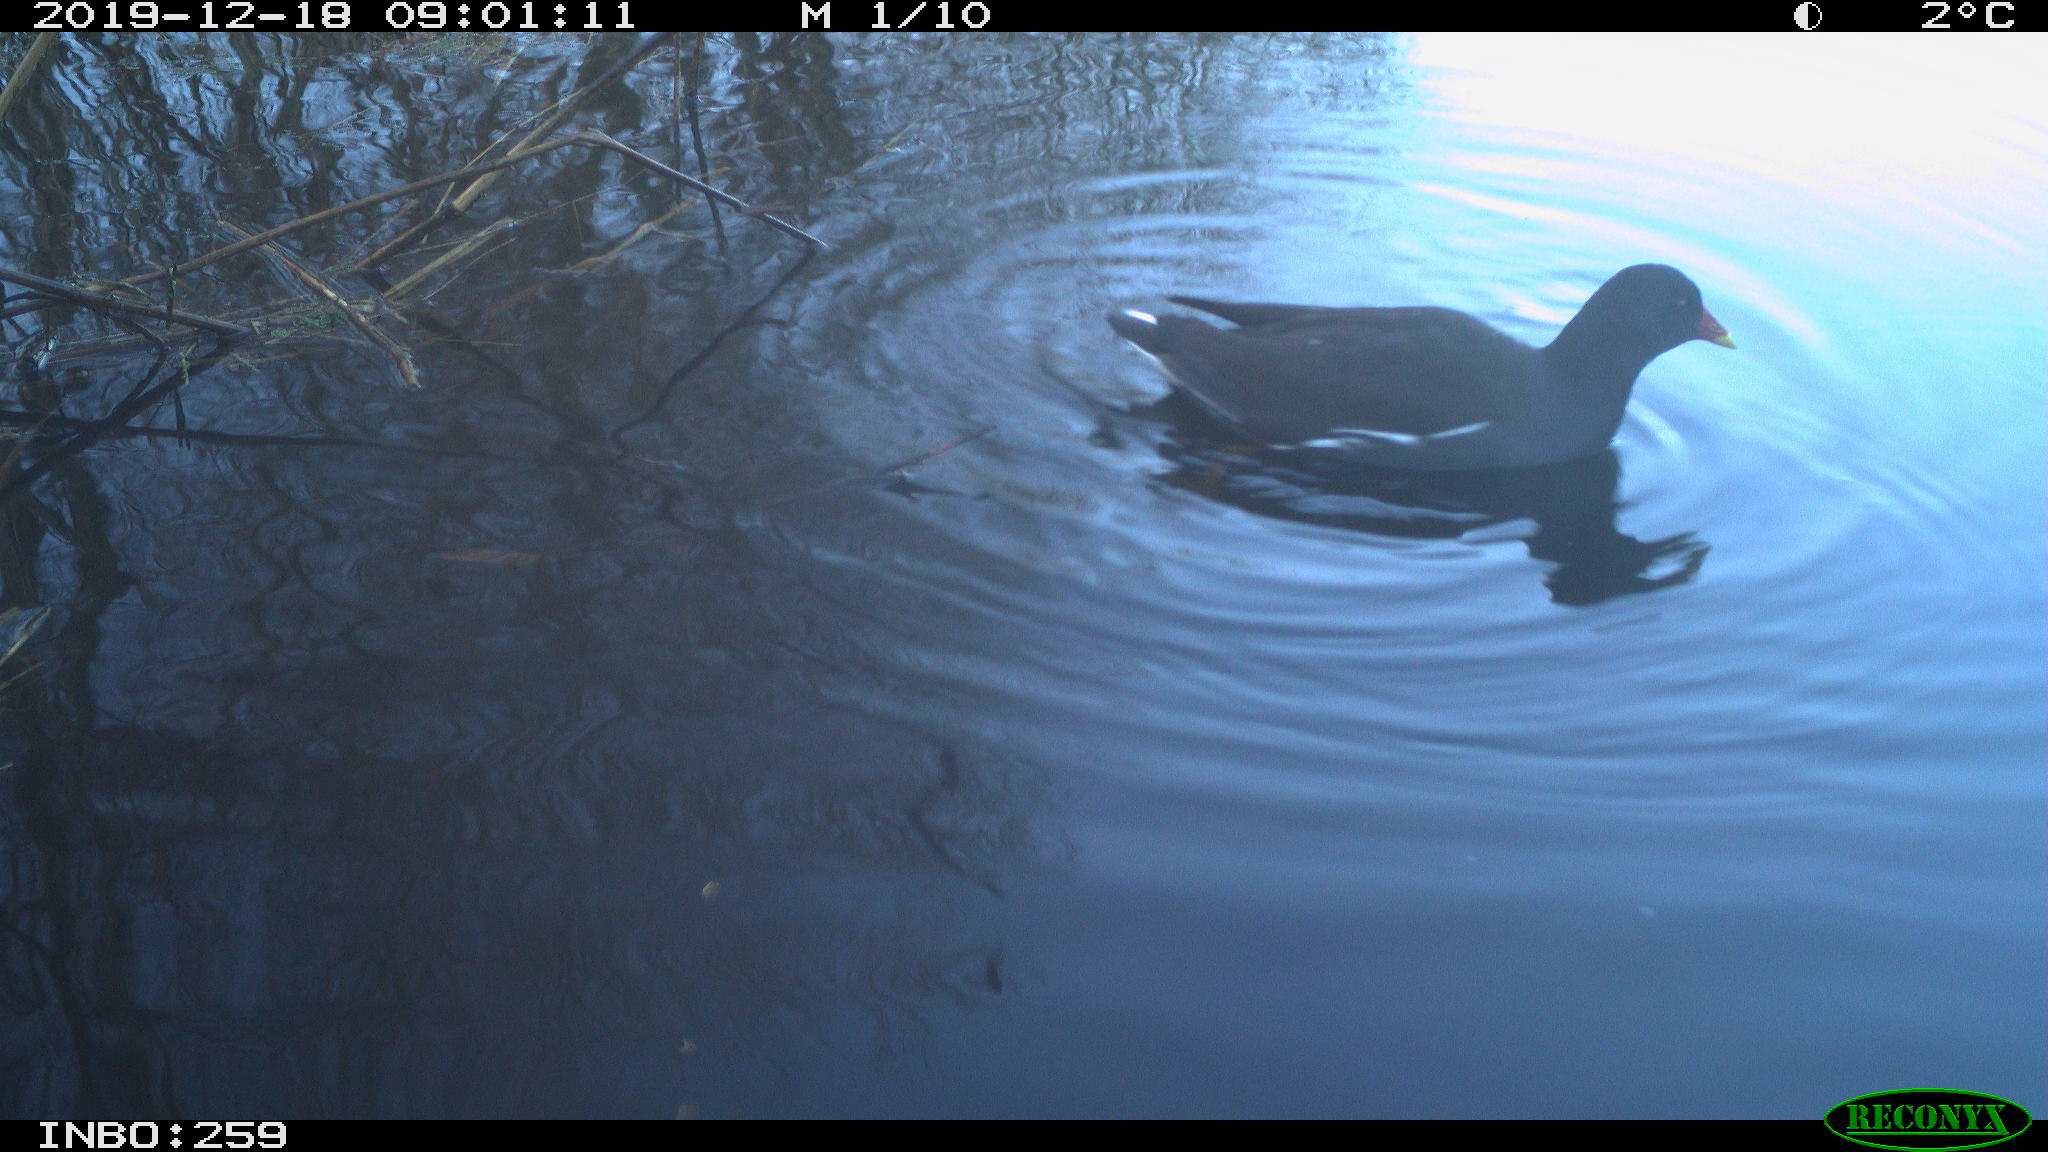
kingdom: Animalia
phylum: Chordata
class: Aves
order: Gruiformes
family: Rallidae
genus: Gallinula
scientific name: Gallinula chloropus
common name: Common moorhen
